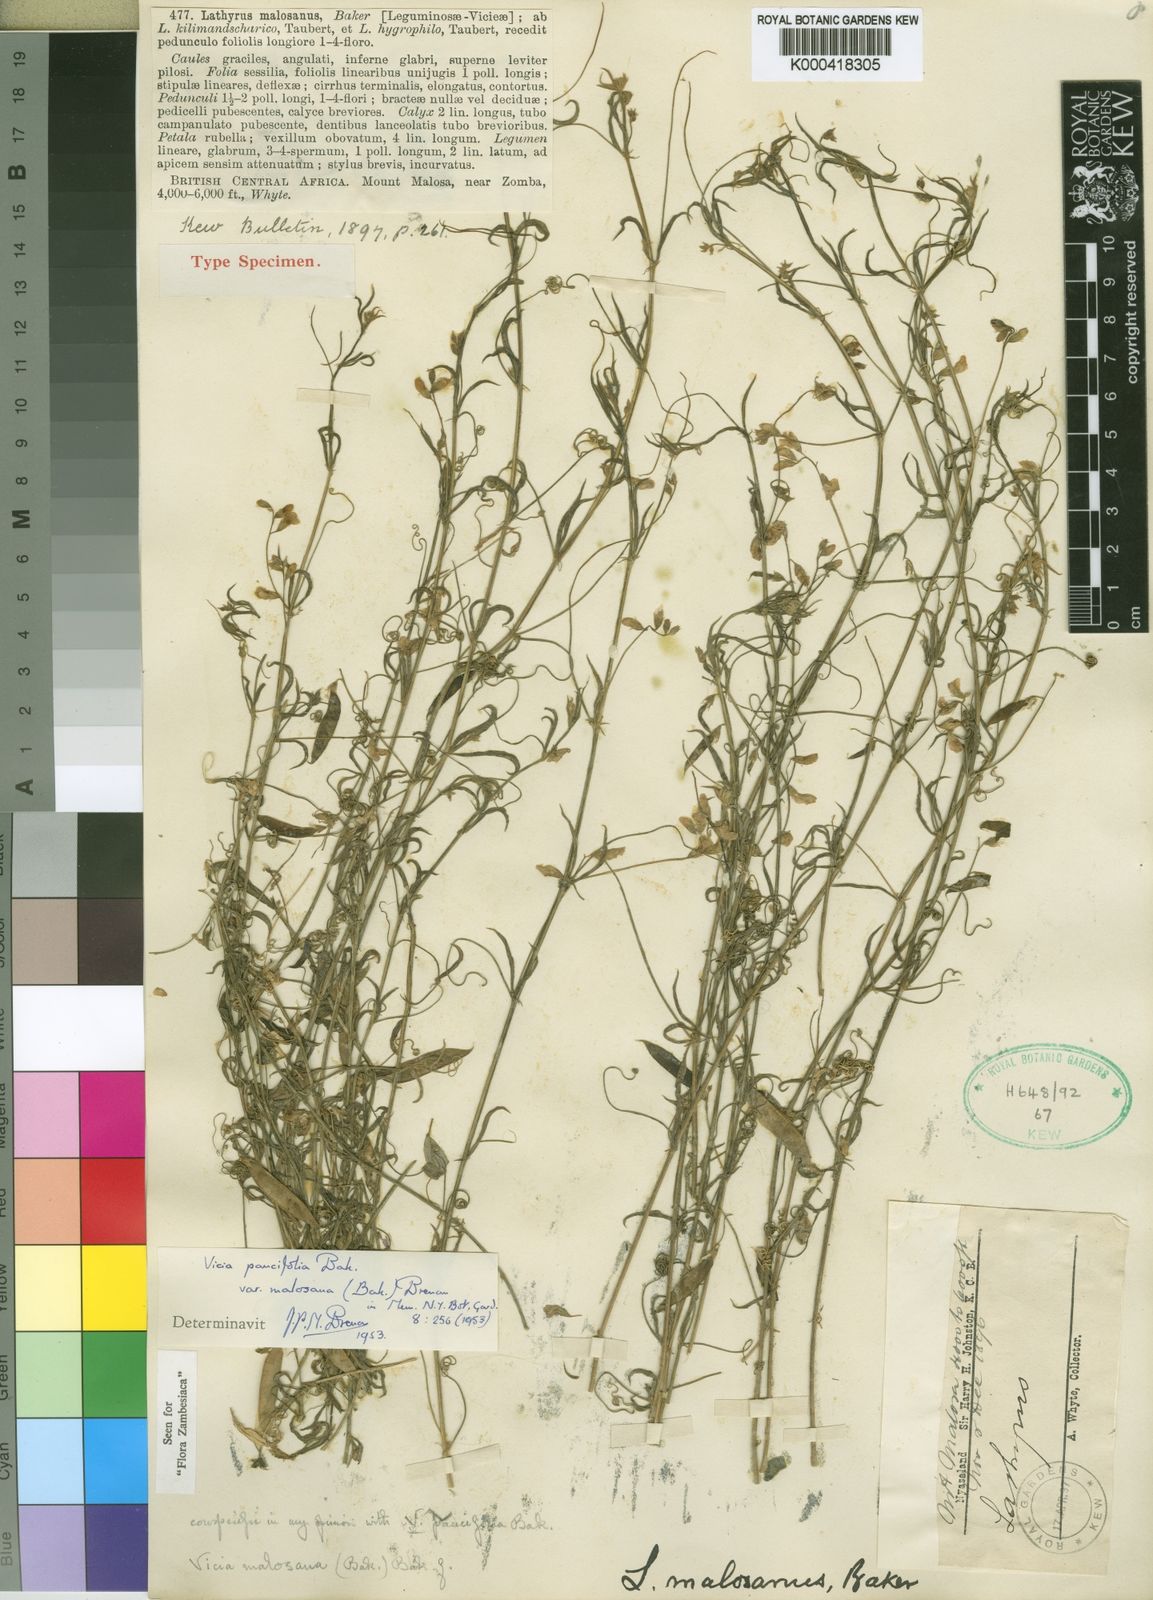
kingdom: Plantae
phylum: Tracheophyta
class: Magnoliopsida
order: Fabales
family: Fabaceae
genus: Vicia
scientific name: Vicia paucifolia
